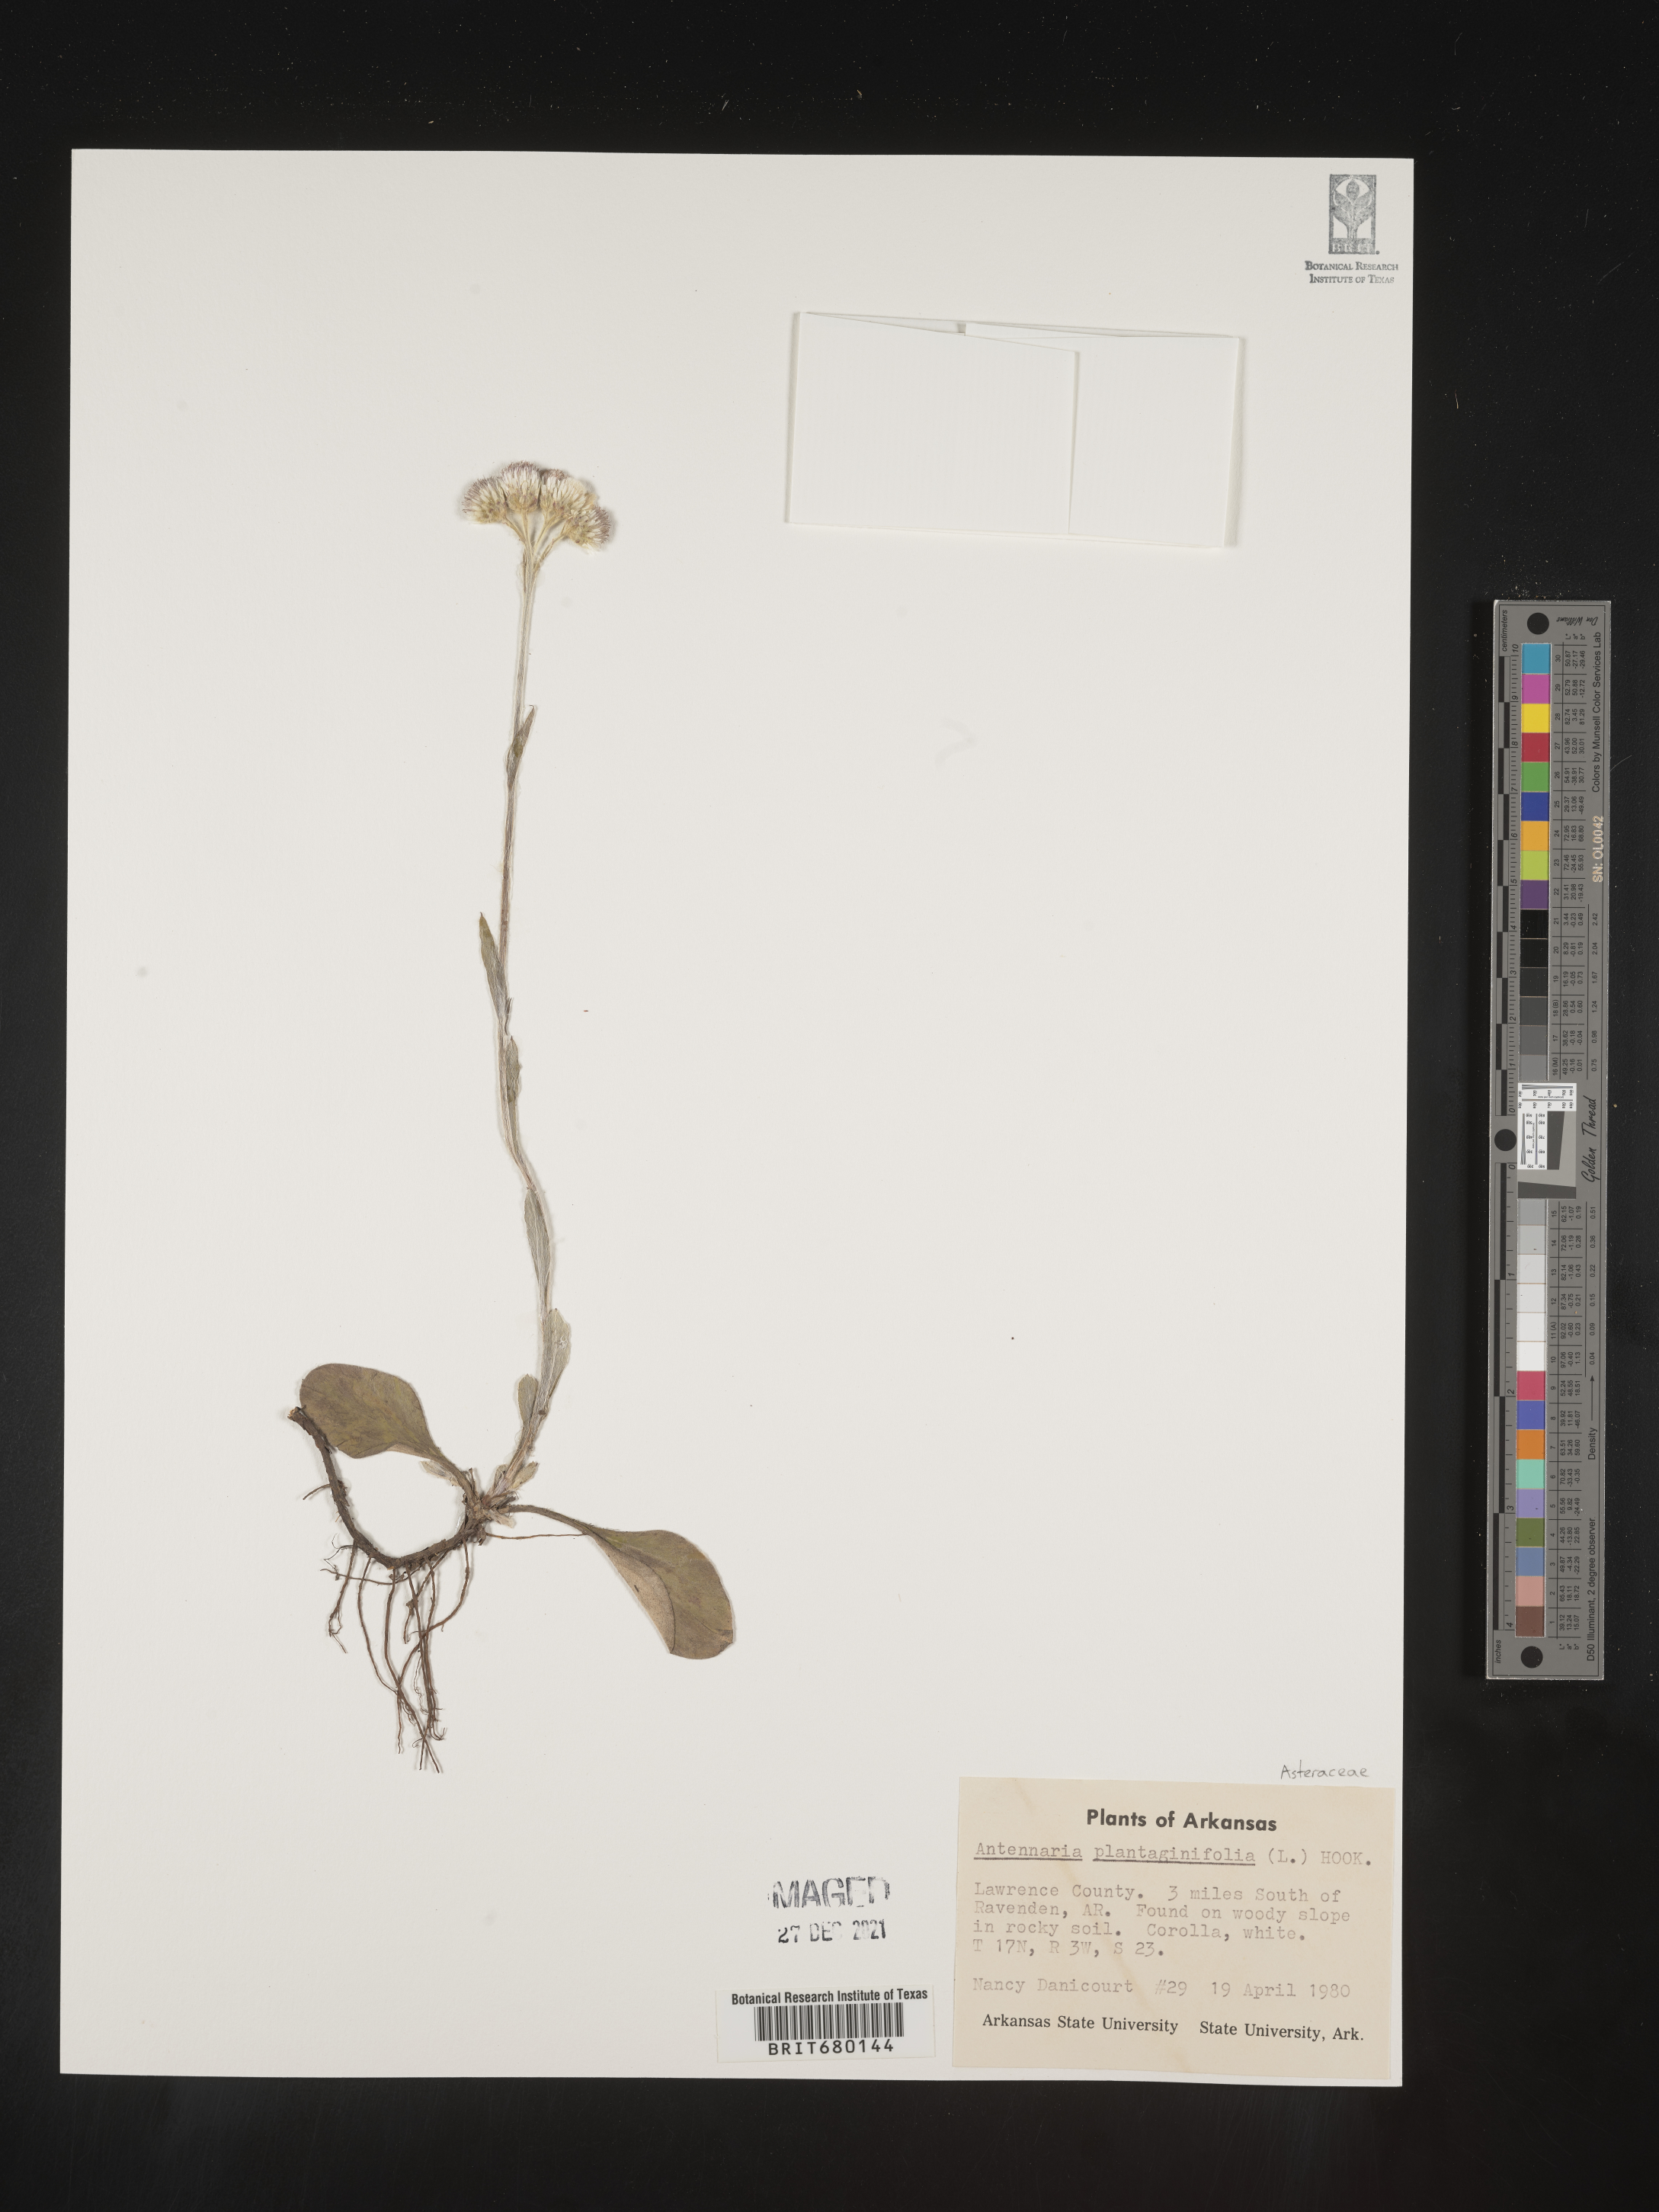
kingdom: Plantae
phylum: Tracheophyta
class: Magnoliopsida
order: Asterales
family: Asteraceae
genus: Antennaria
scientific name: Antennaria plantaginifolia
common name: Plantain-leaved pussytoes
